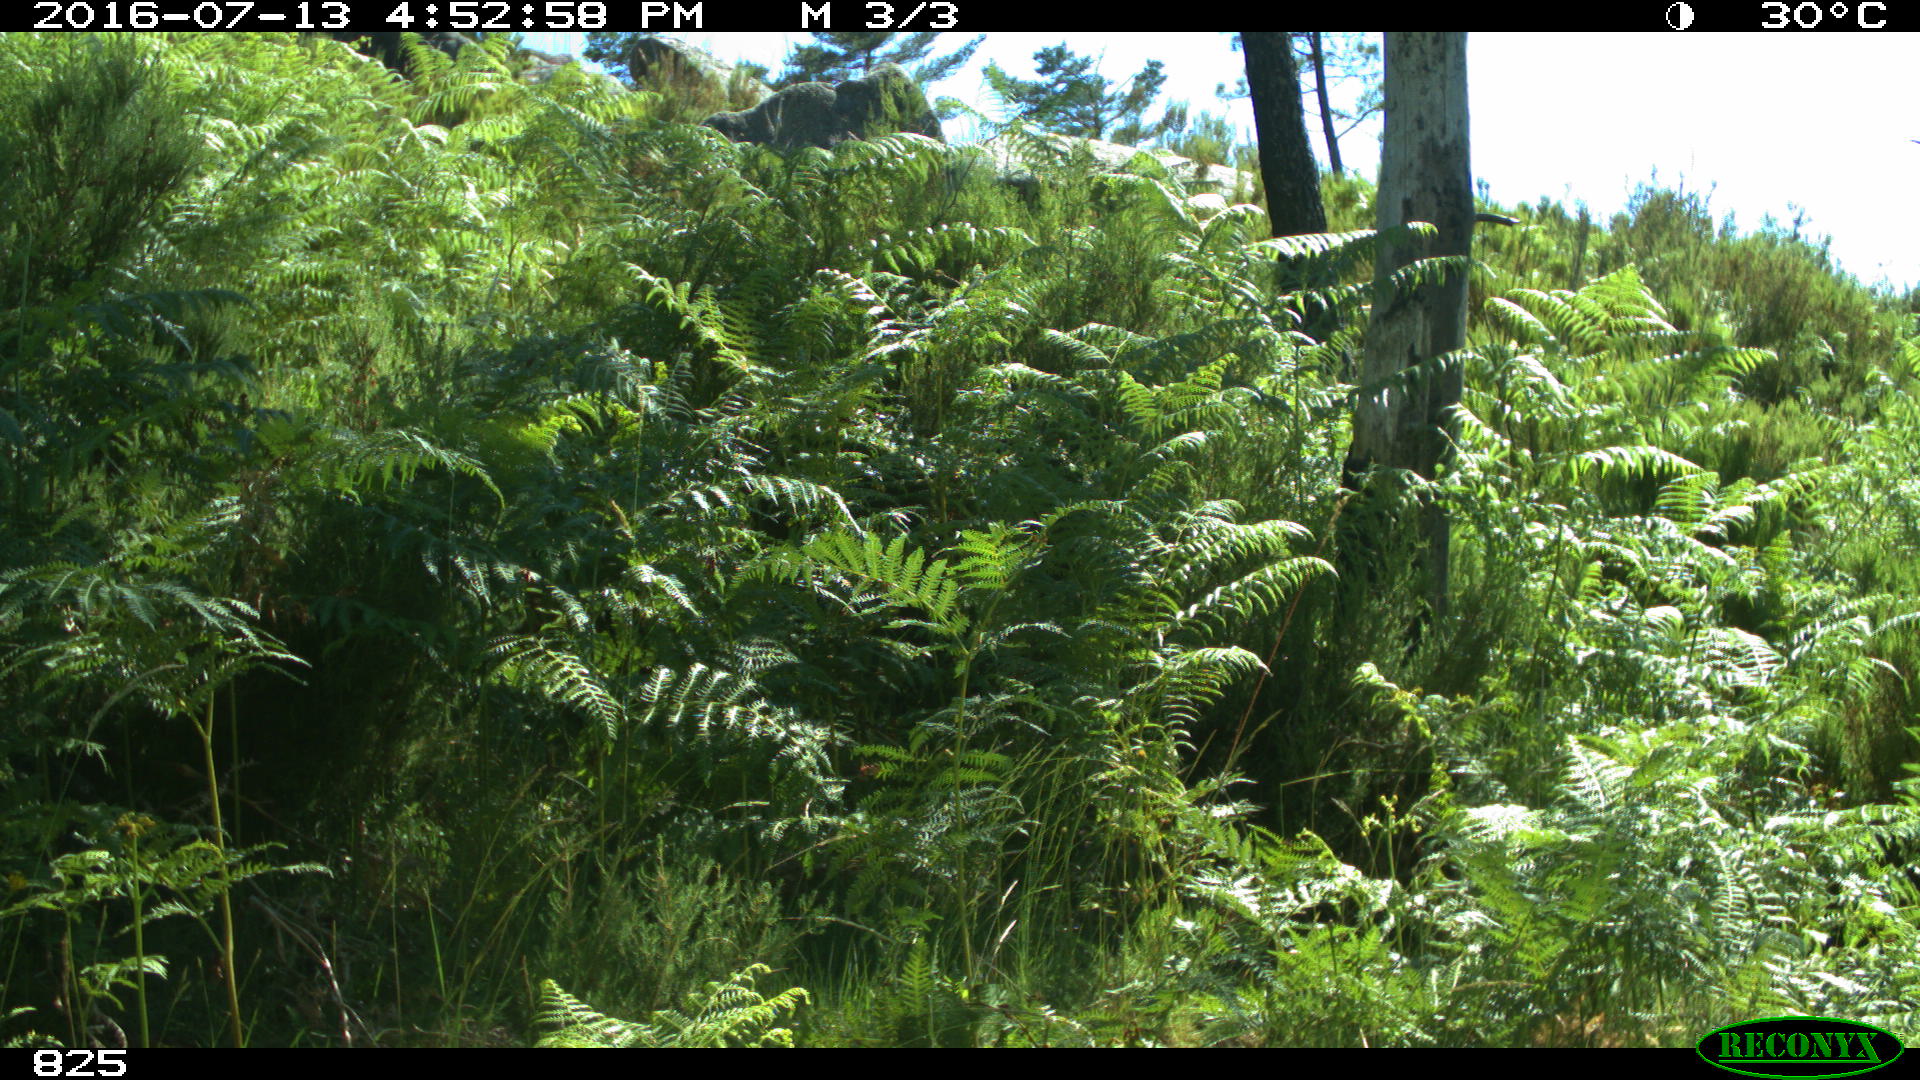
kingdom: Animalia
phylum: Chordata
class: Mammalia
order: Artiodactyla
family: Bovidae
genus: Bos
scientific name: Bos taurus
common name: Domesticated cattle
